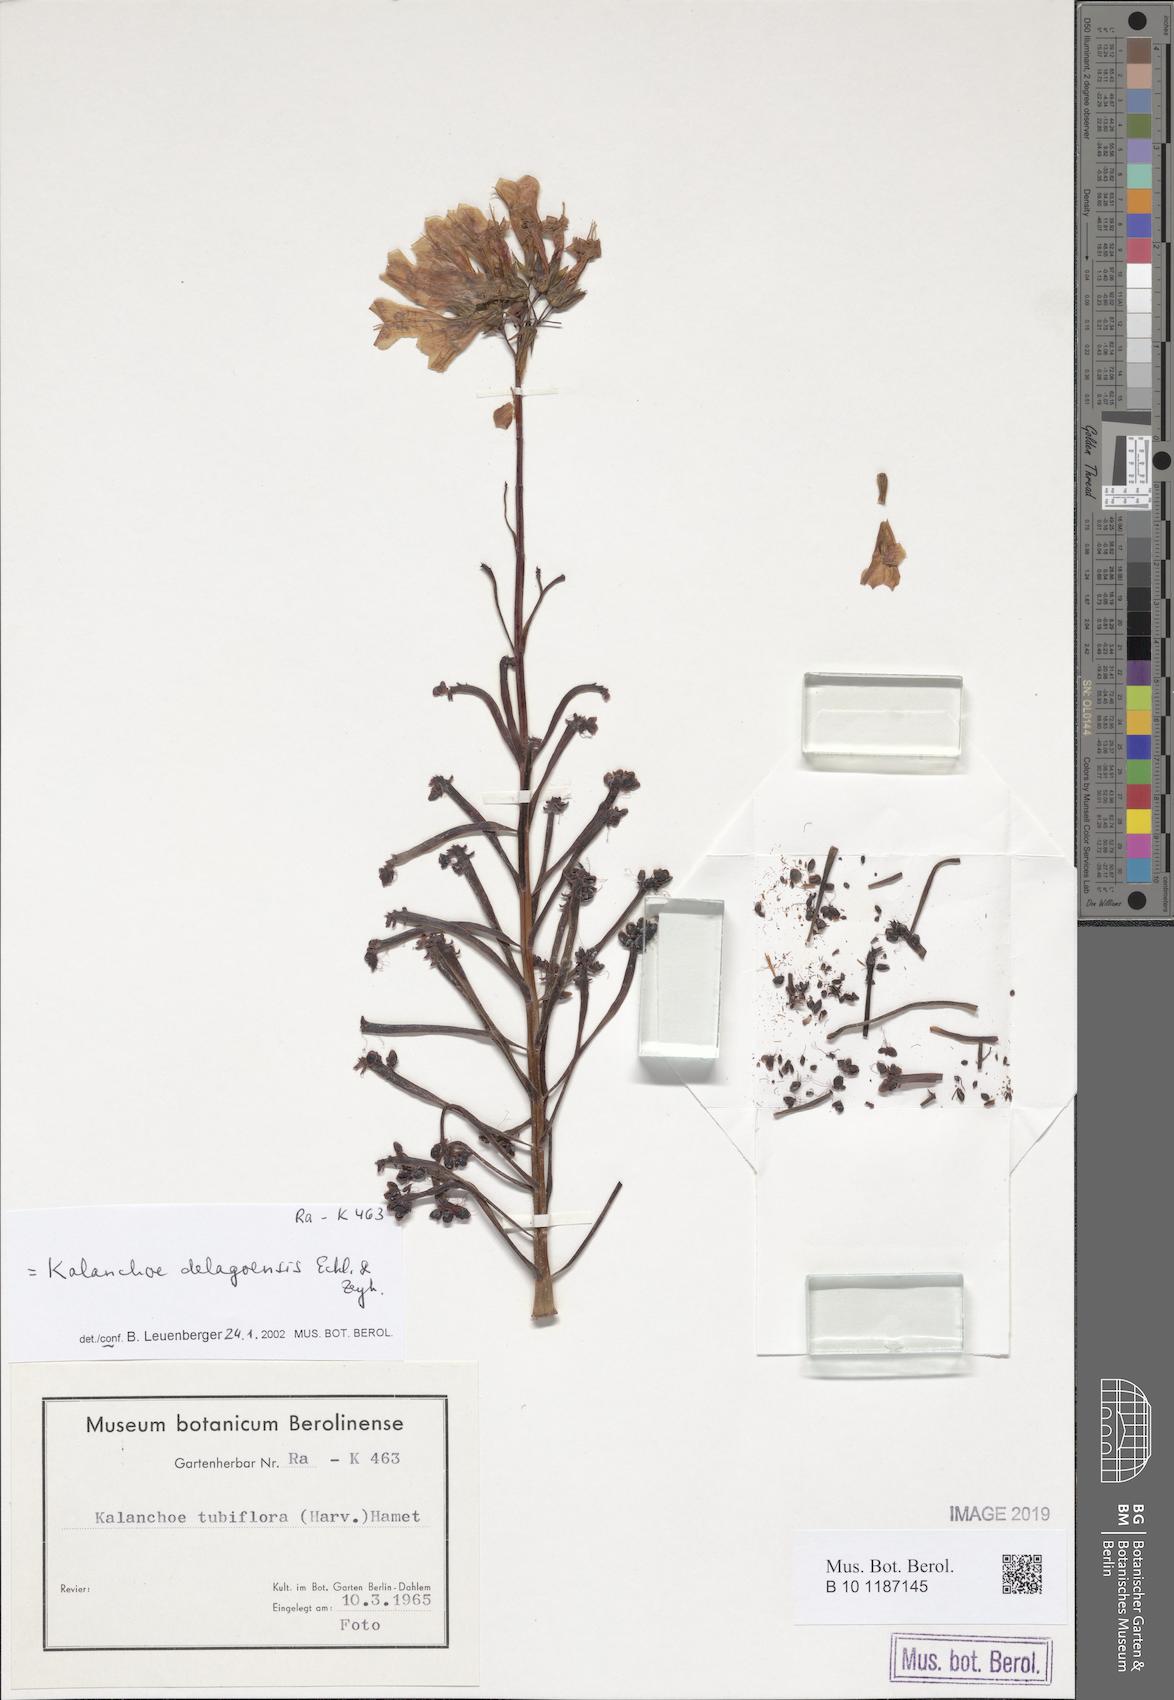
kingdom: Plantae
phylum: Tracheophyta
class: Magnoliopsida
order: Saxifragales
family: Crassulaceae
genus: Kalanchoe
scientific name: Kalanchoe delagoensis
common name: Chandelier plant
